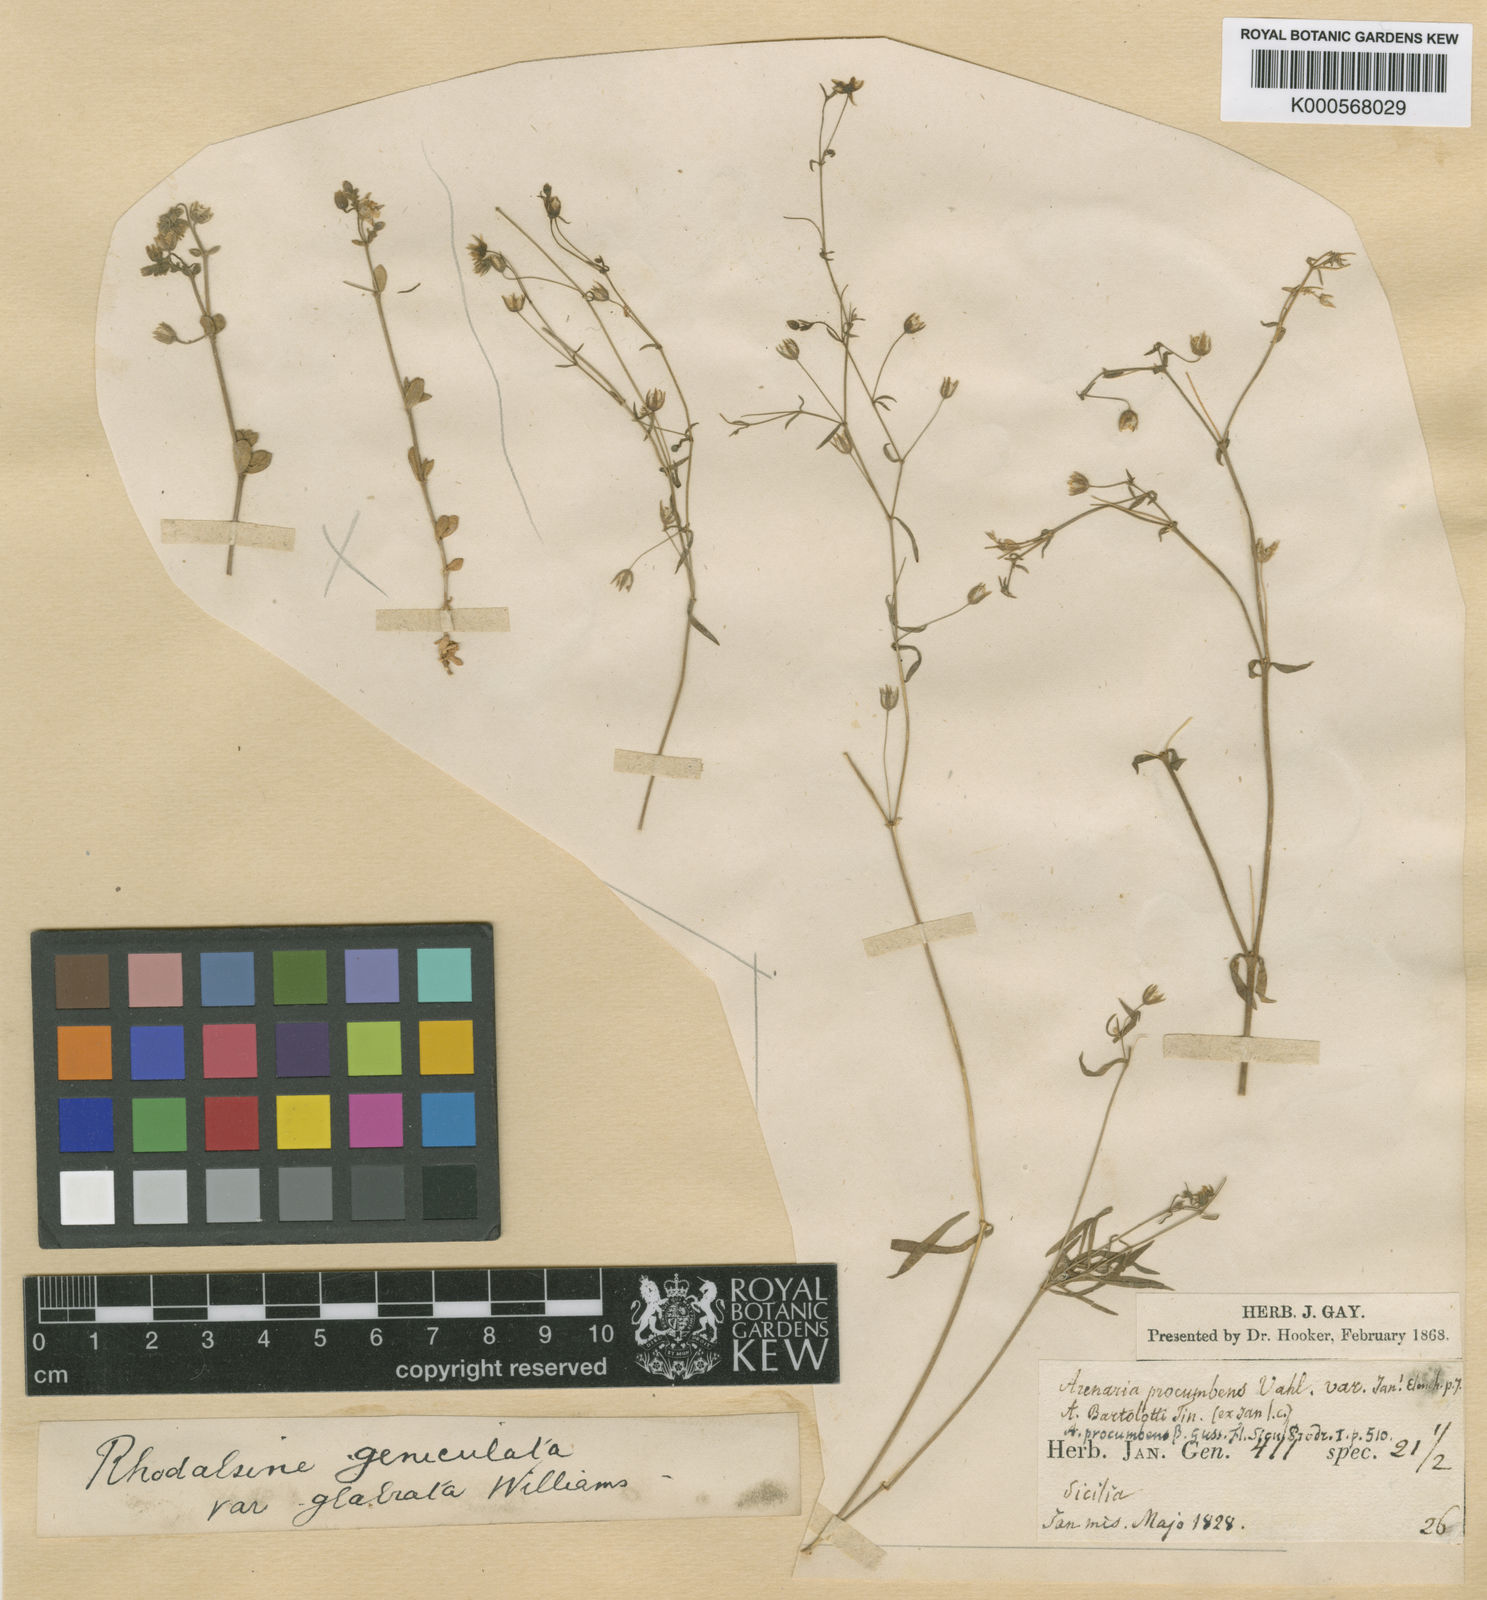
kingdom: Plantae
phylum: Tracheophyta
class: Magnoliopsida
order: Caryophyllales
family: Caryophyllaceae
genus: Rhodalsine
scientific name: Rhodalsine geniculata
